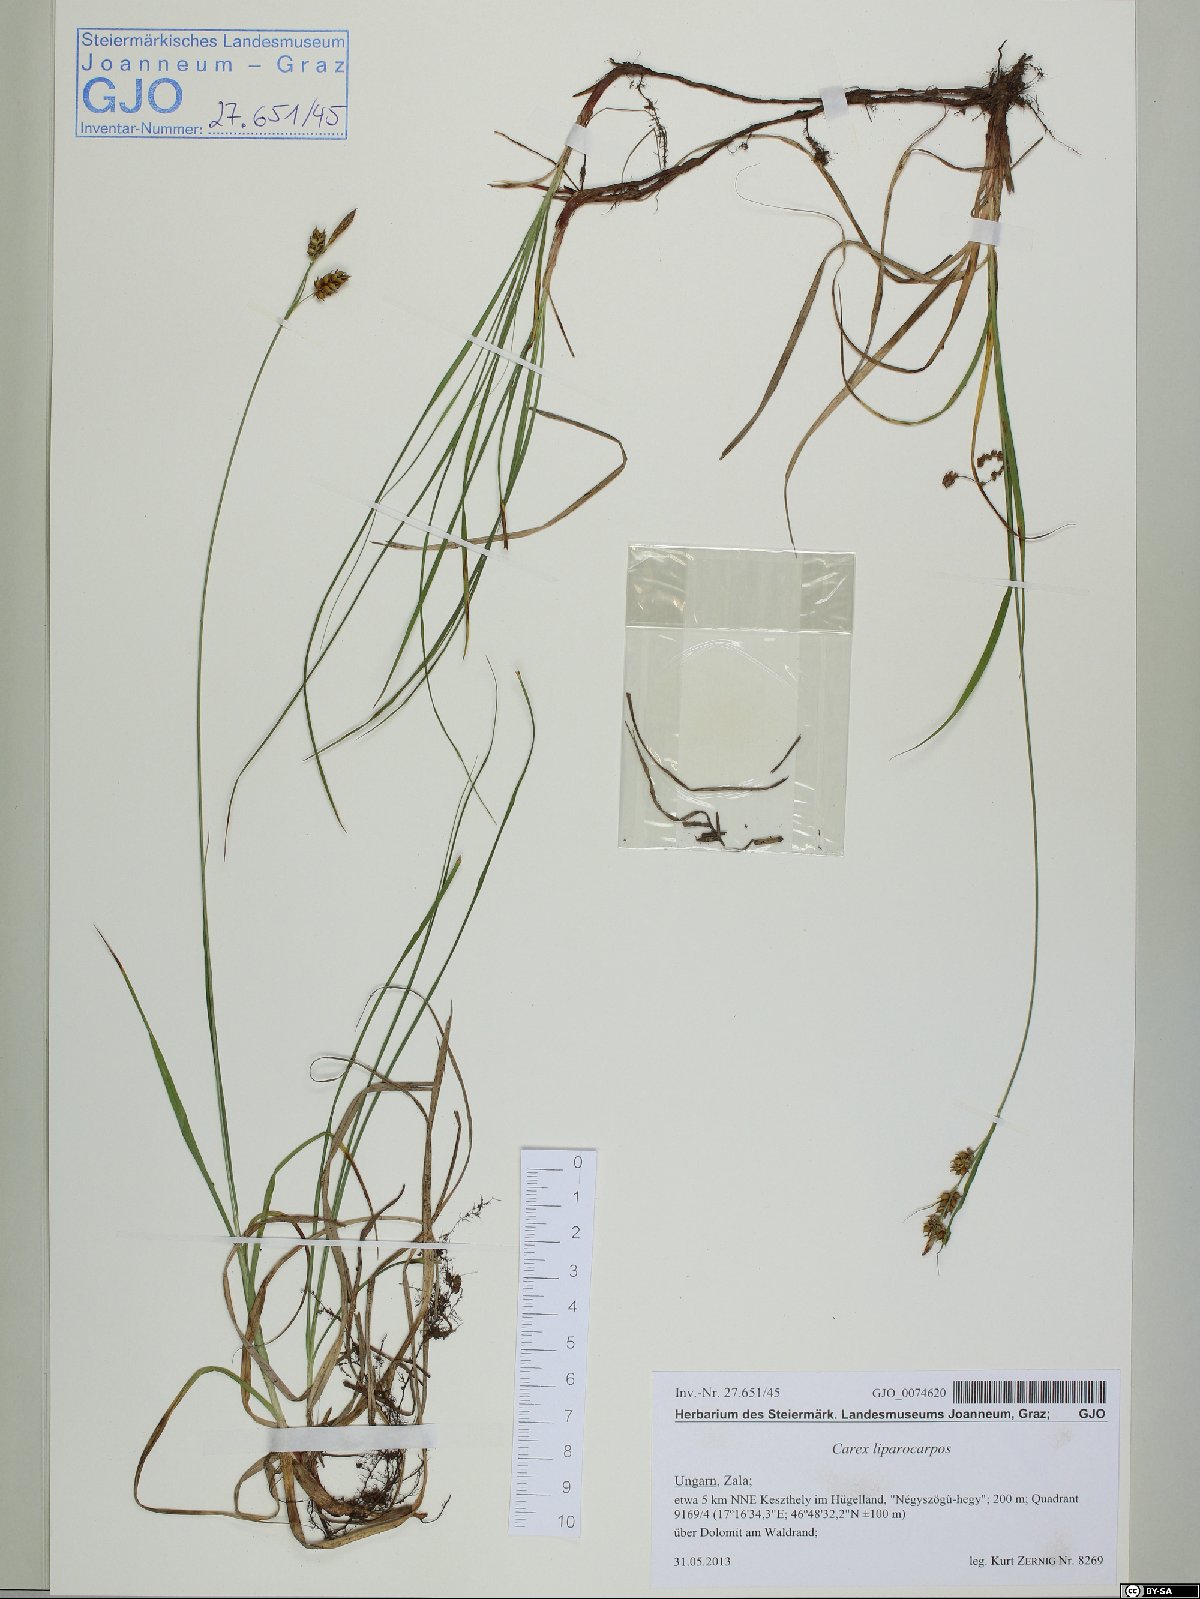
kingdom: Plantae
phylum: Tracheophyta
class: Liliopsida
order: Poales
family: Cyperaceae
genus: Carex
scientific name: Carex liparocarpos
